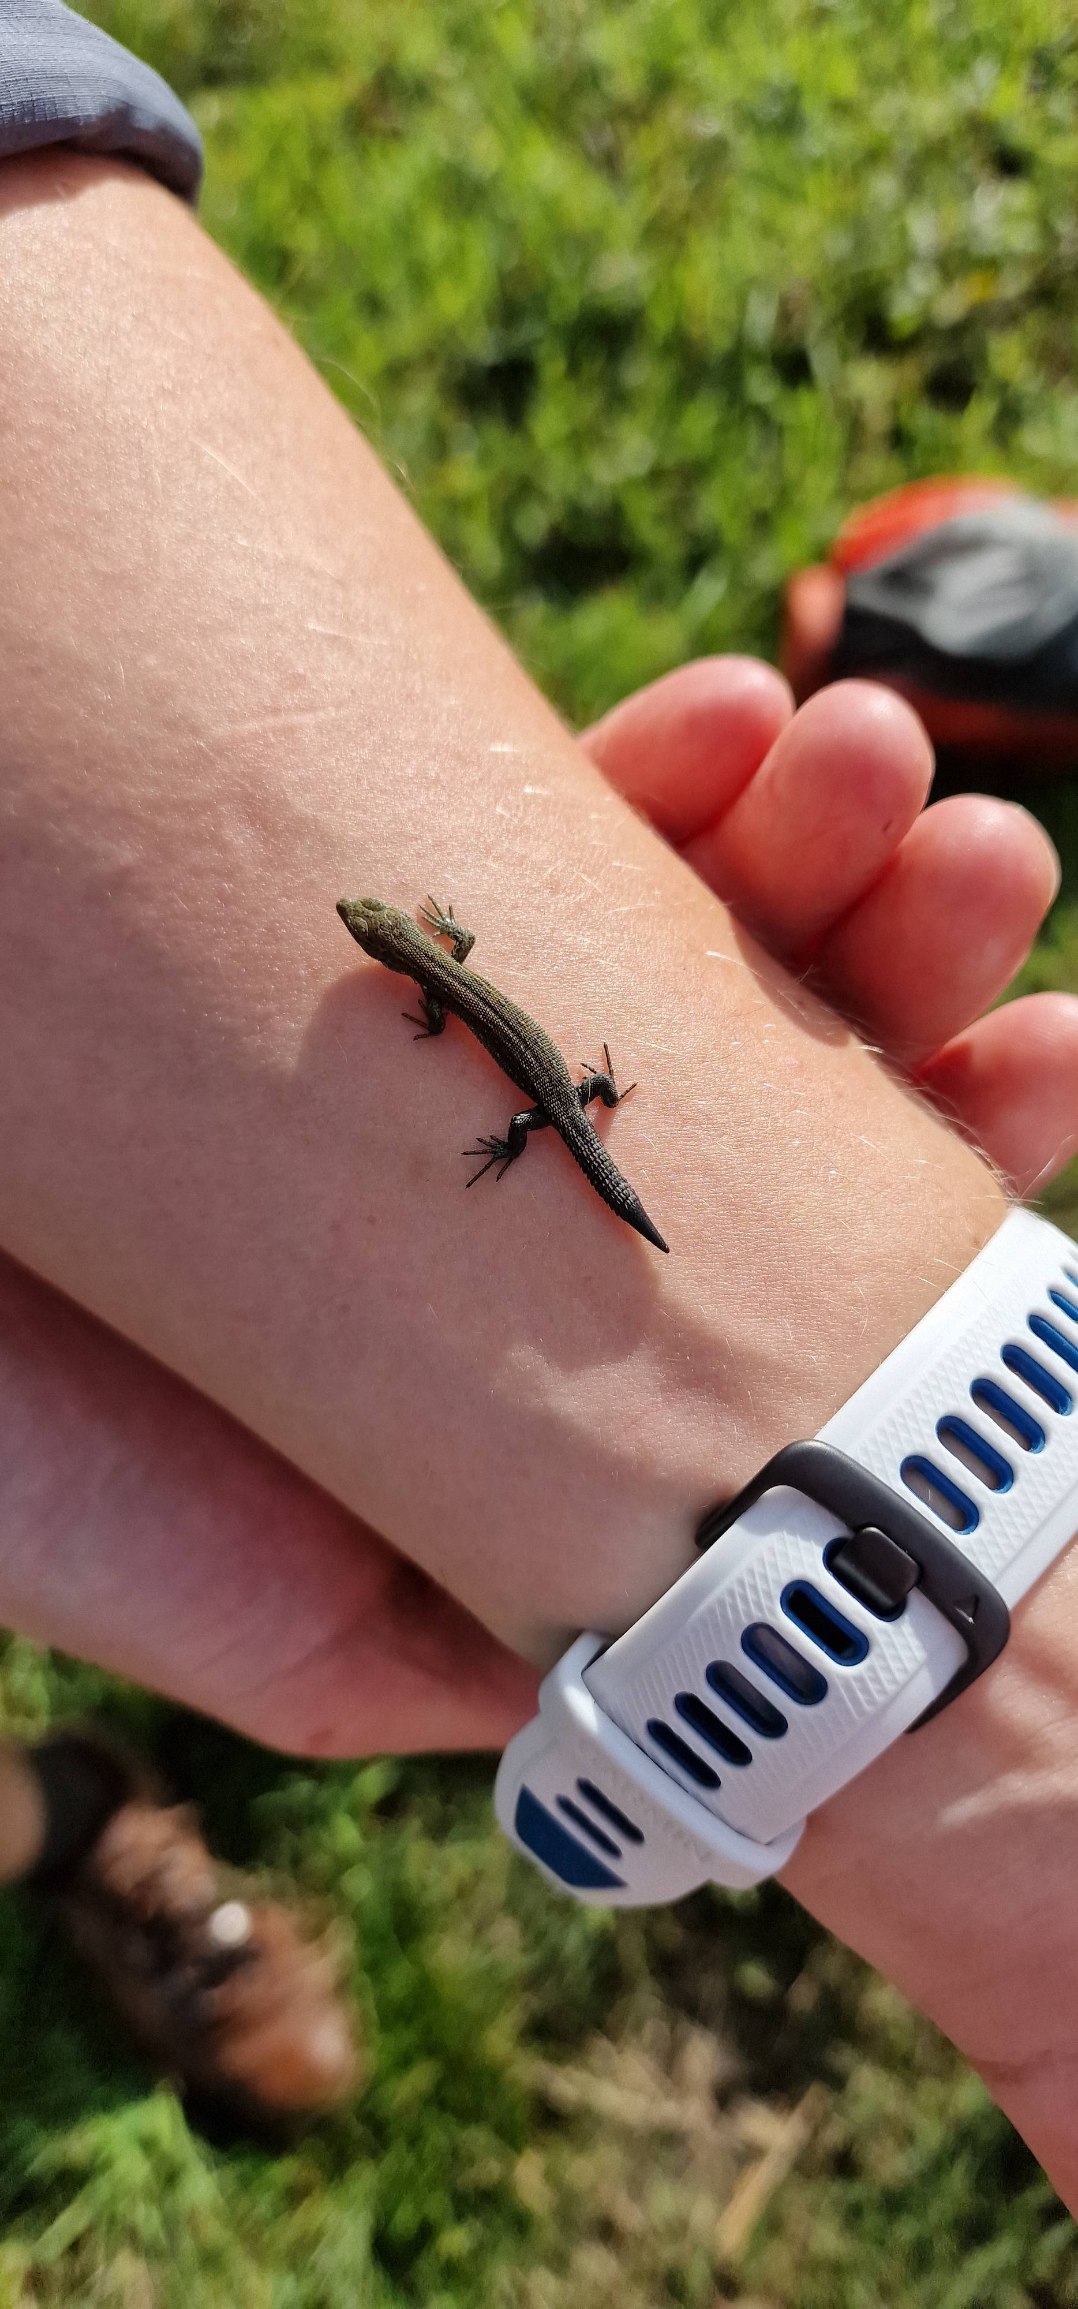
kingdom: Animalia
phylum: Chordata
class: Squamata
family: Lacertidae
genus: Zootoca
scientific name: Zootoca vivipara
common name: Skovfirben
